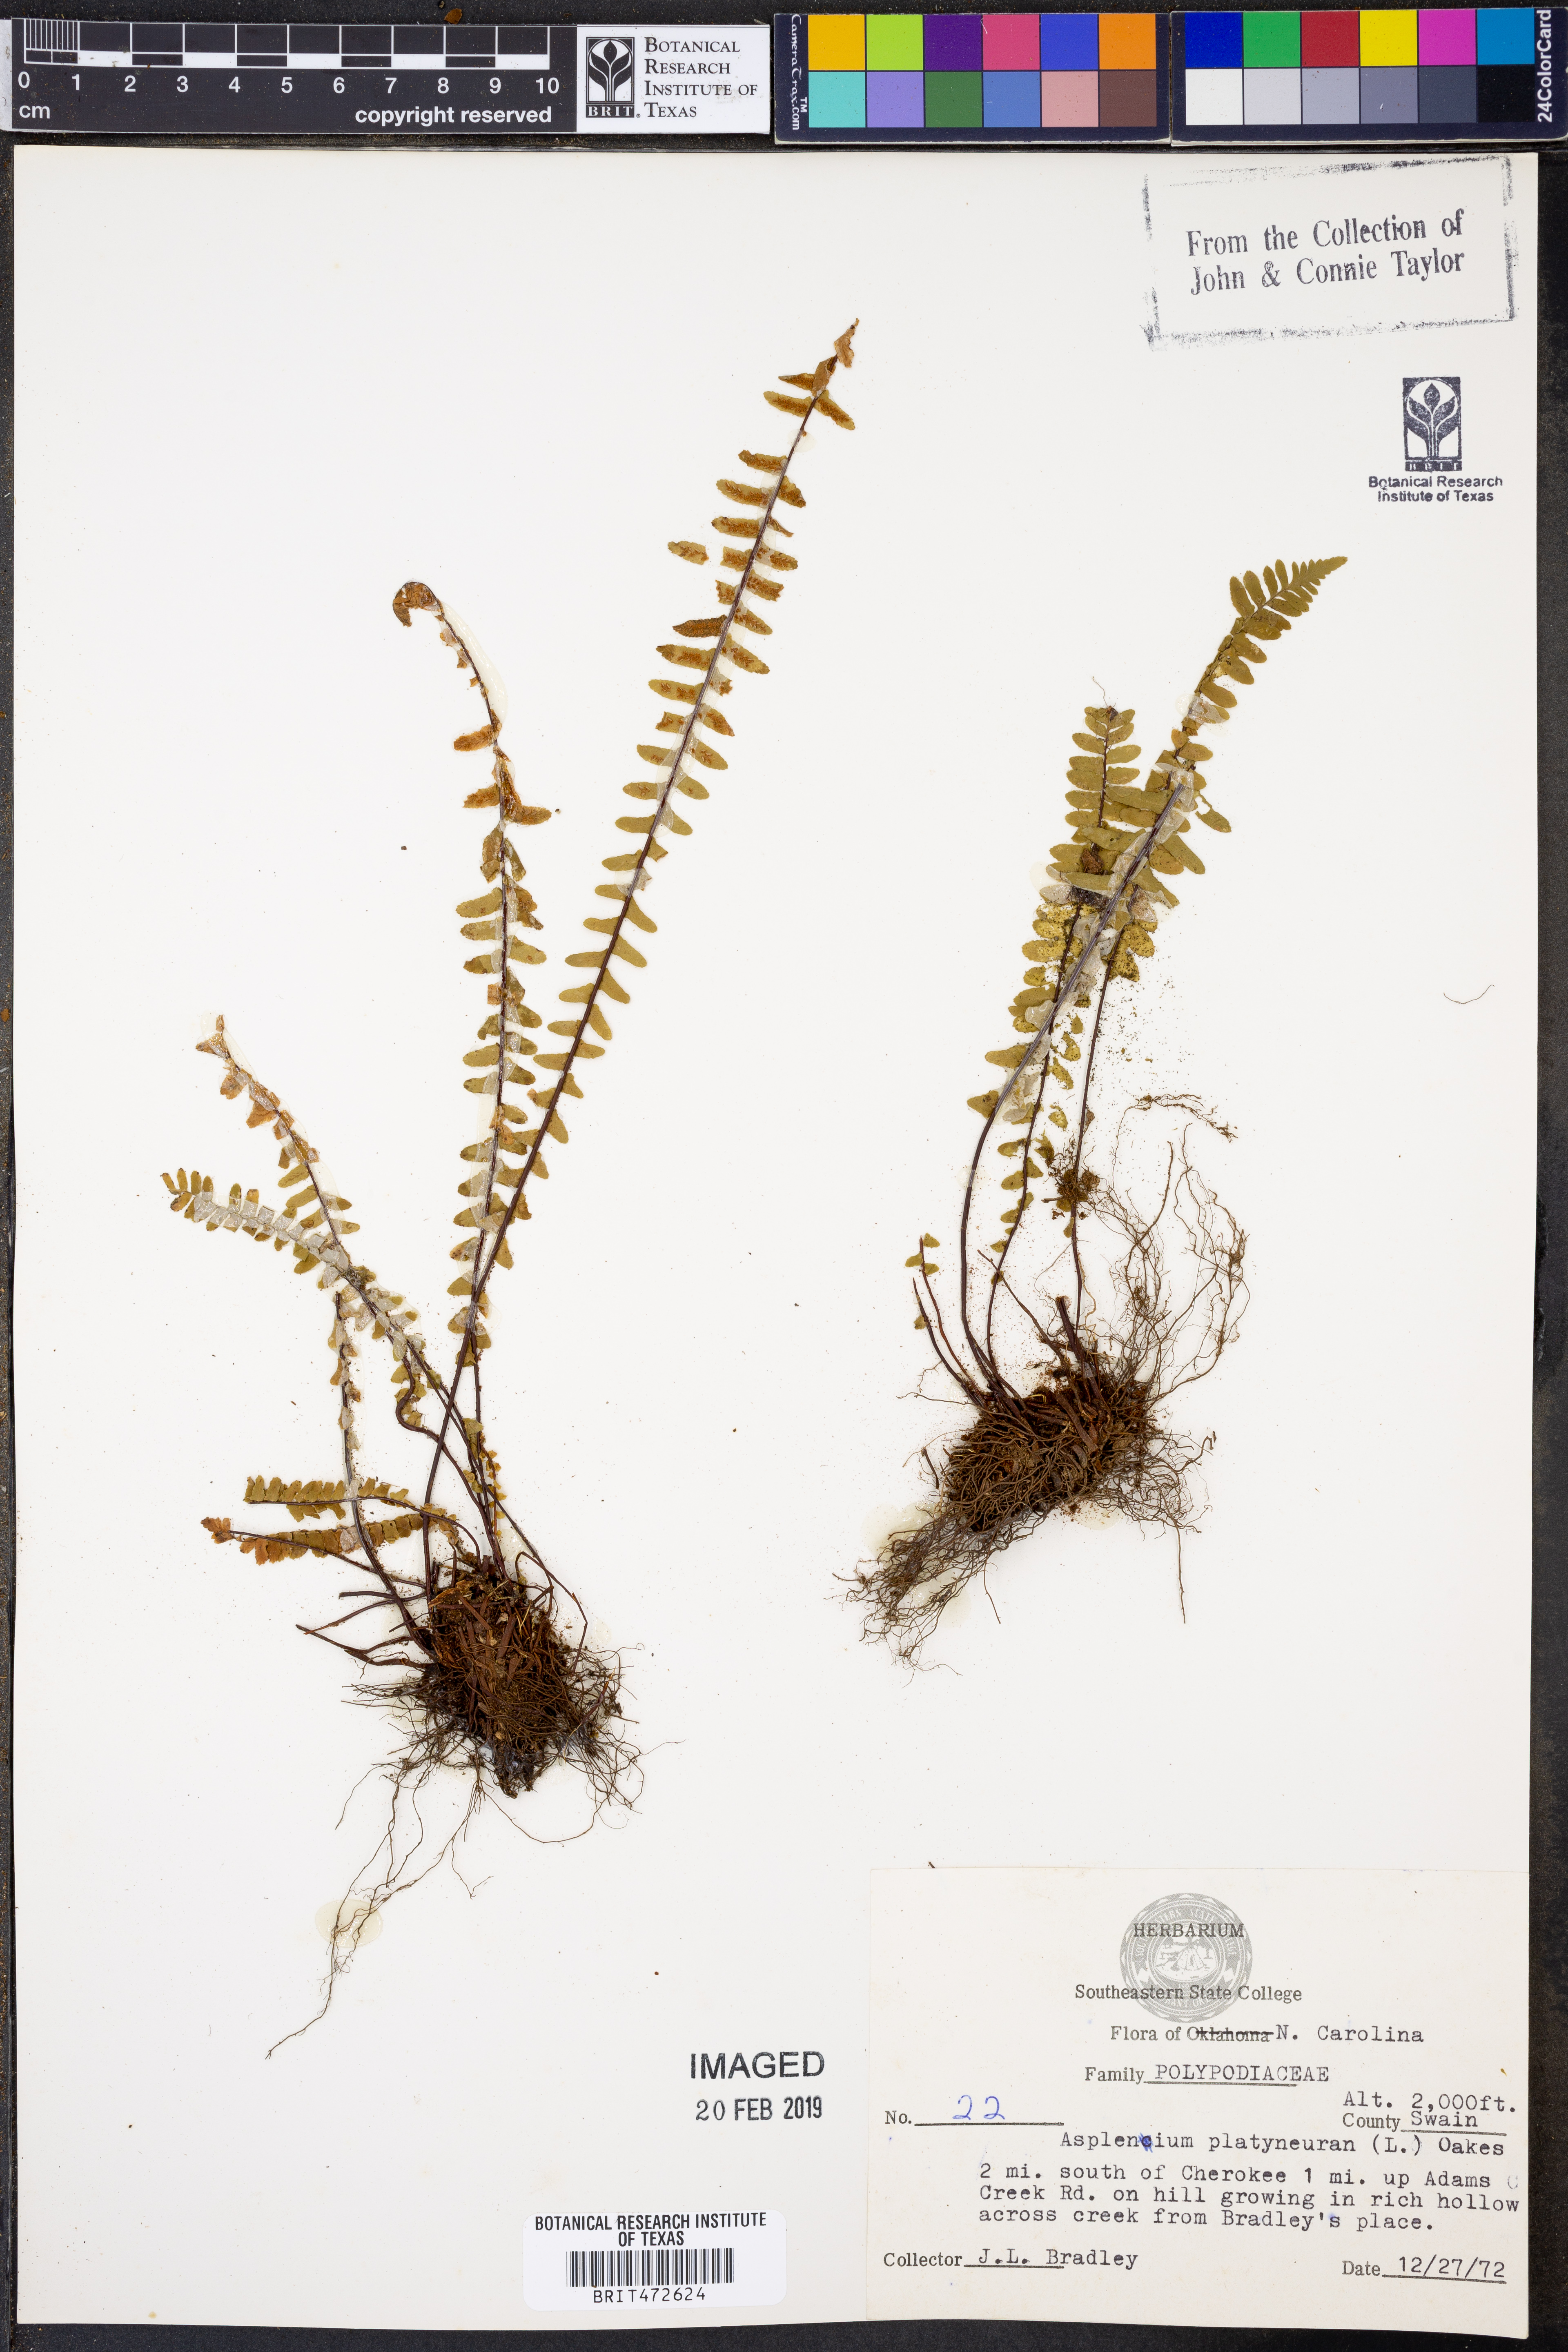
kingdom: Plantae
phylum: Tracheophyta
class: Polypodiopsida
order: Polypodiales
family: Aspleniaceae
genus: Asplenium
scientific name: Asplenium platyneuron
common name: Ebony spleenwort
